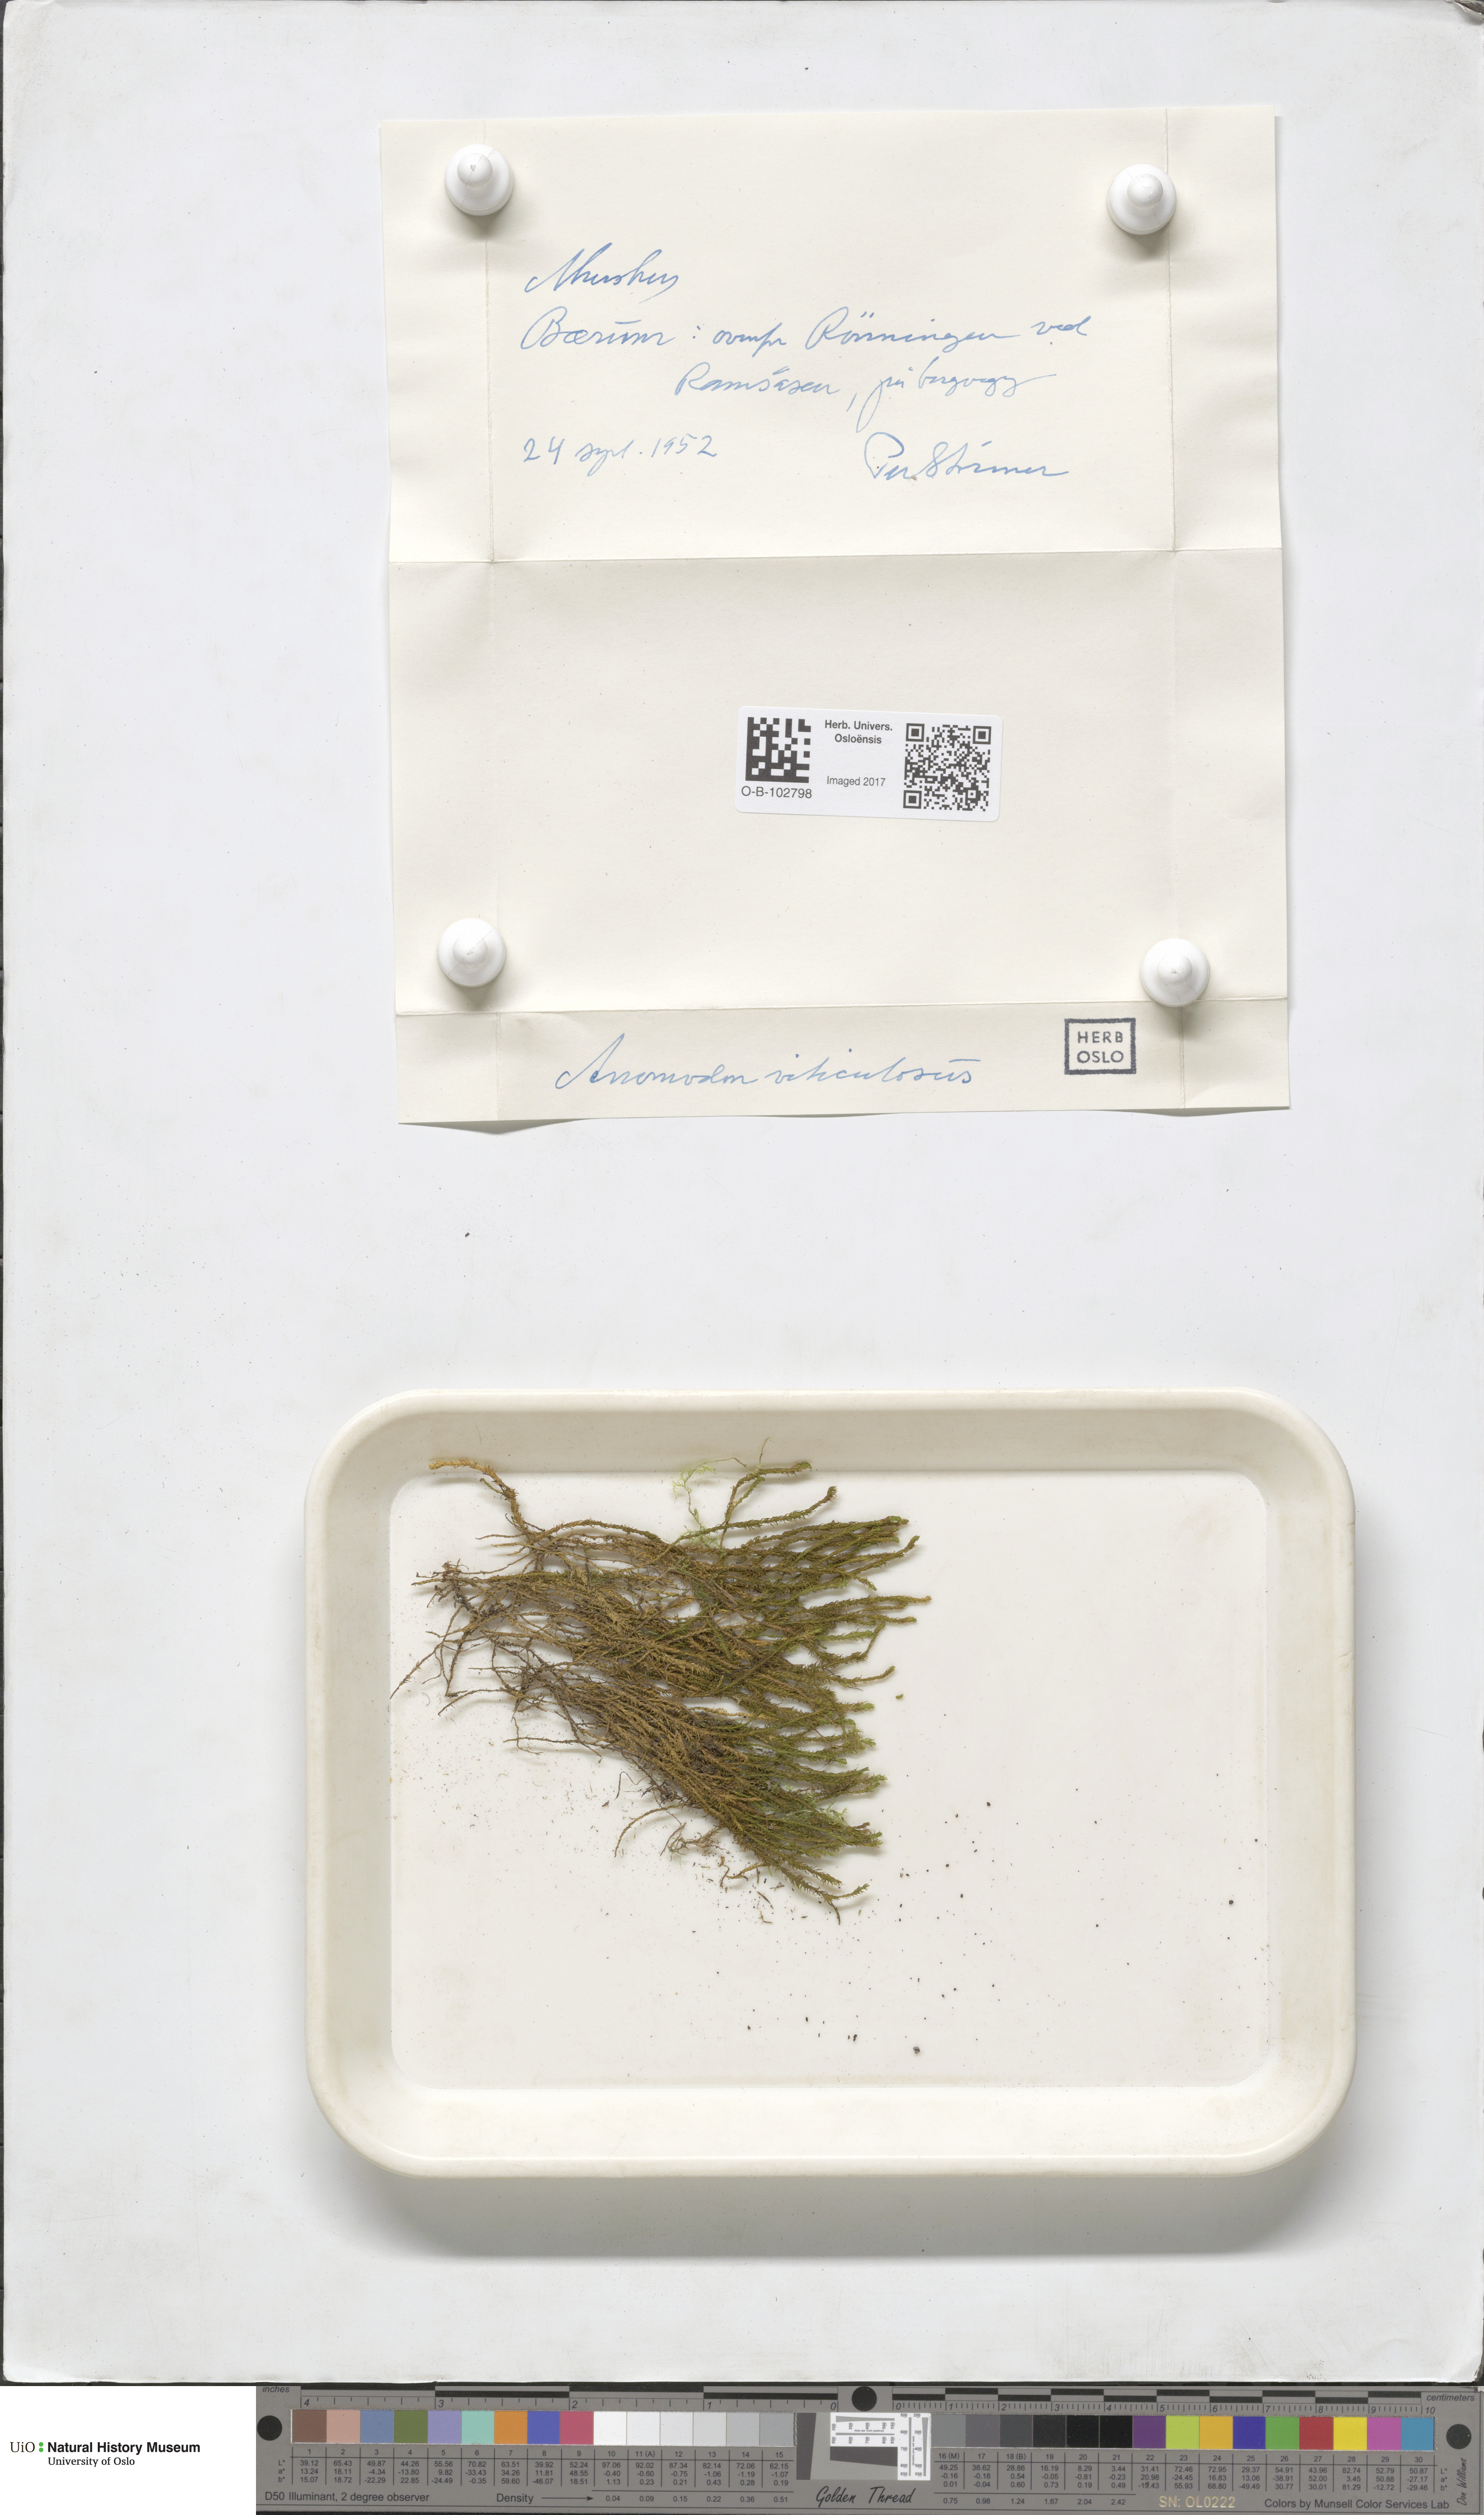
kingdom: Plantae
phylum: Bryophyta
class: Bryopsida
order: Hypnales
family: Anomodontaceae
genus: Anomodon
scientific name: Anomodon viticulosus
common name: Tall anomodon
